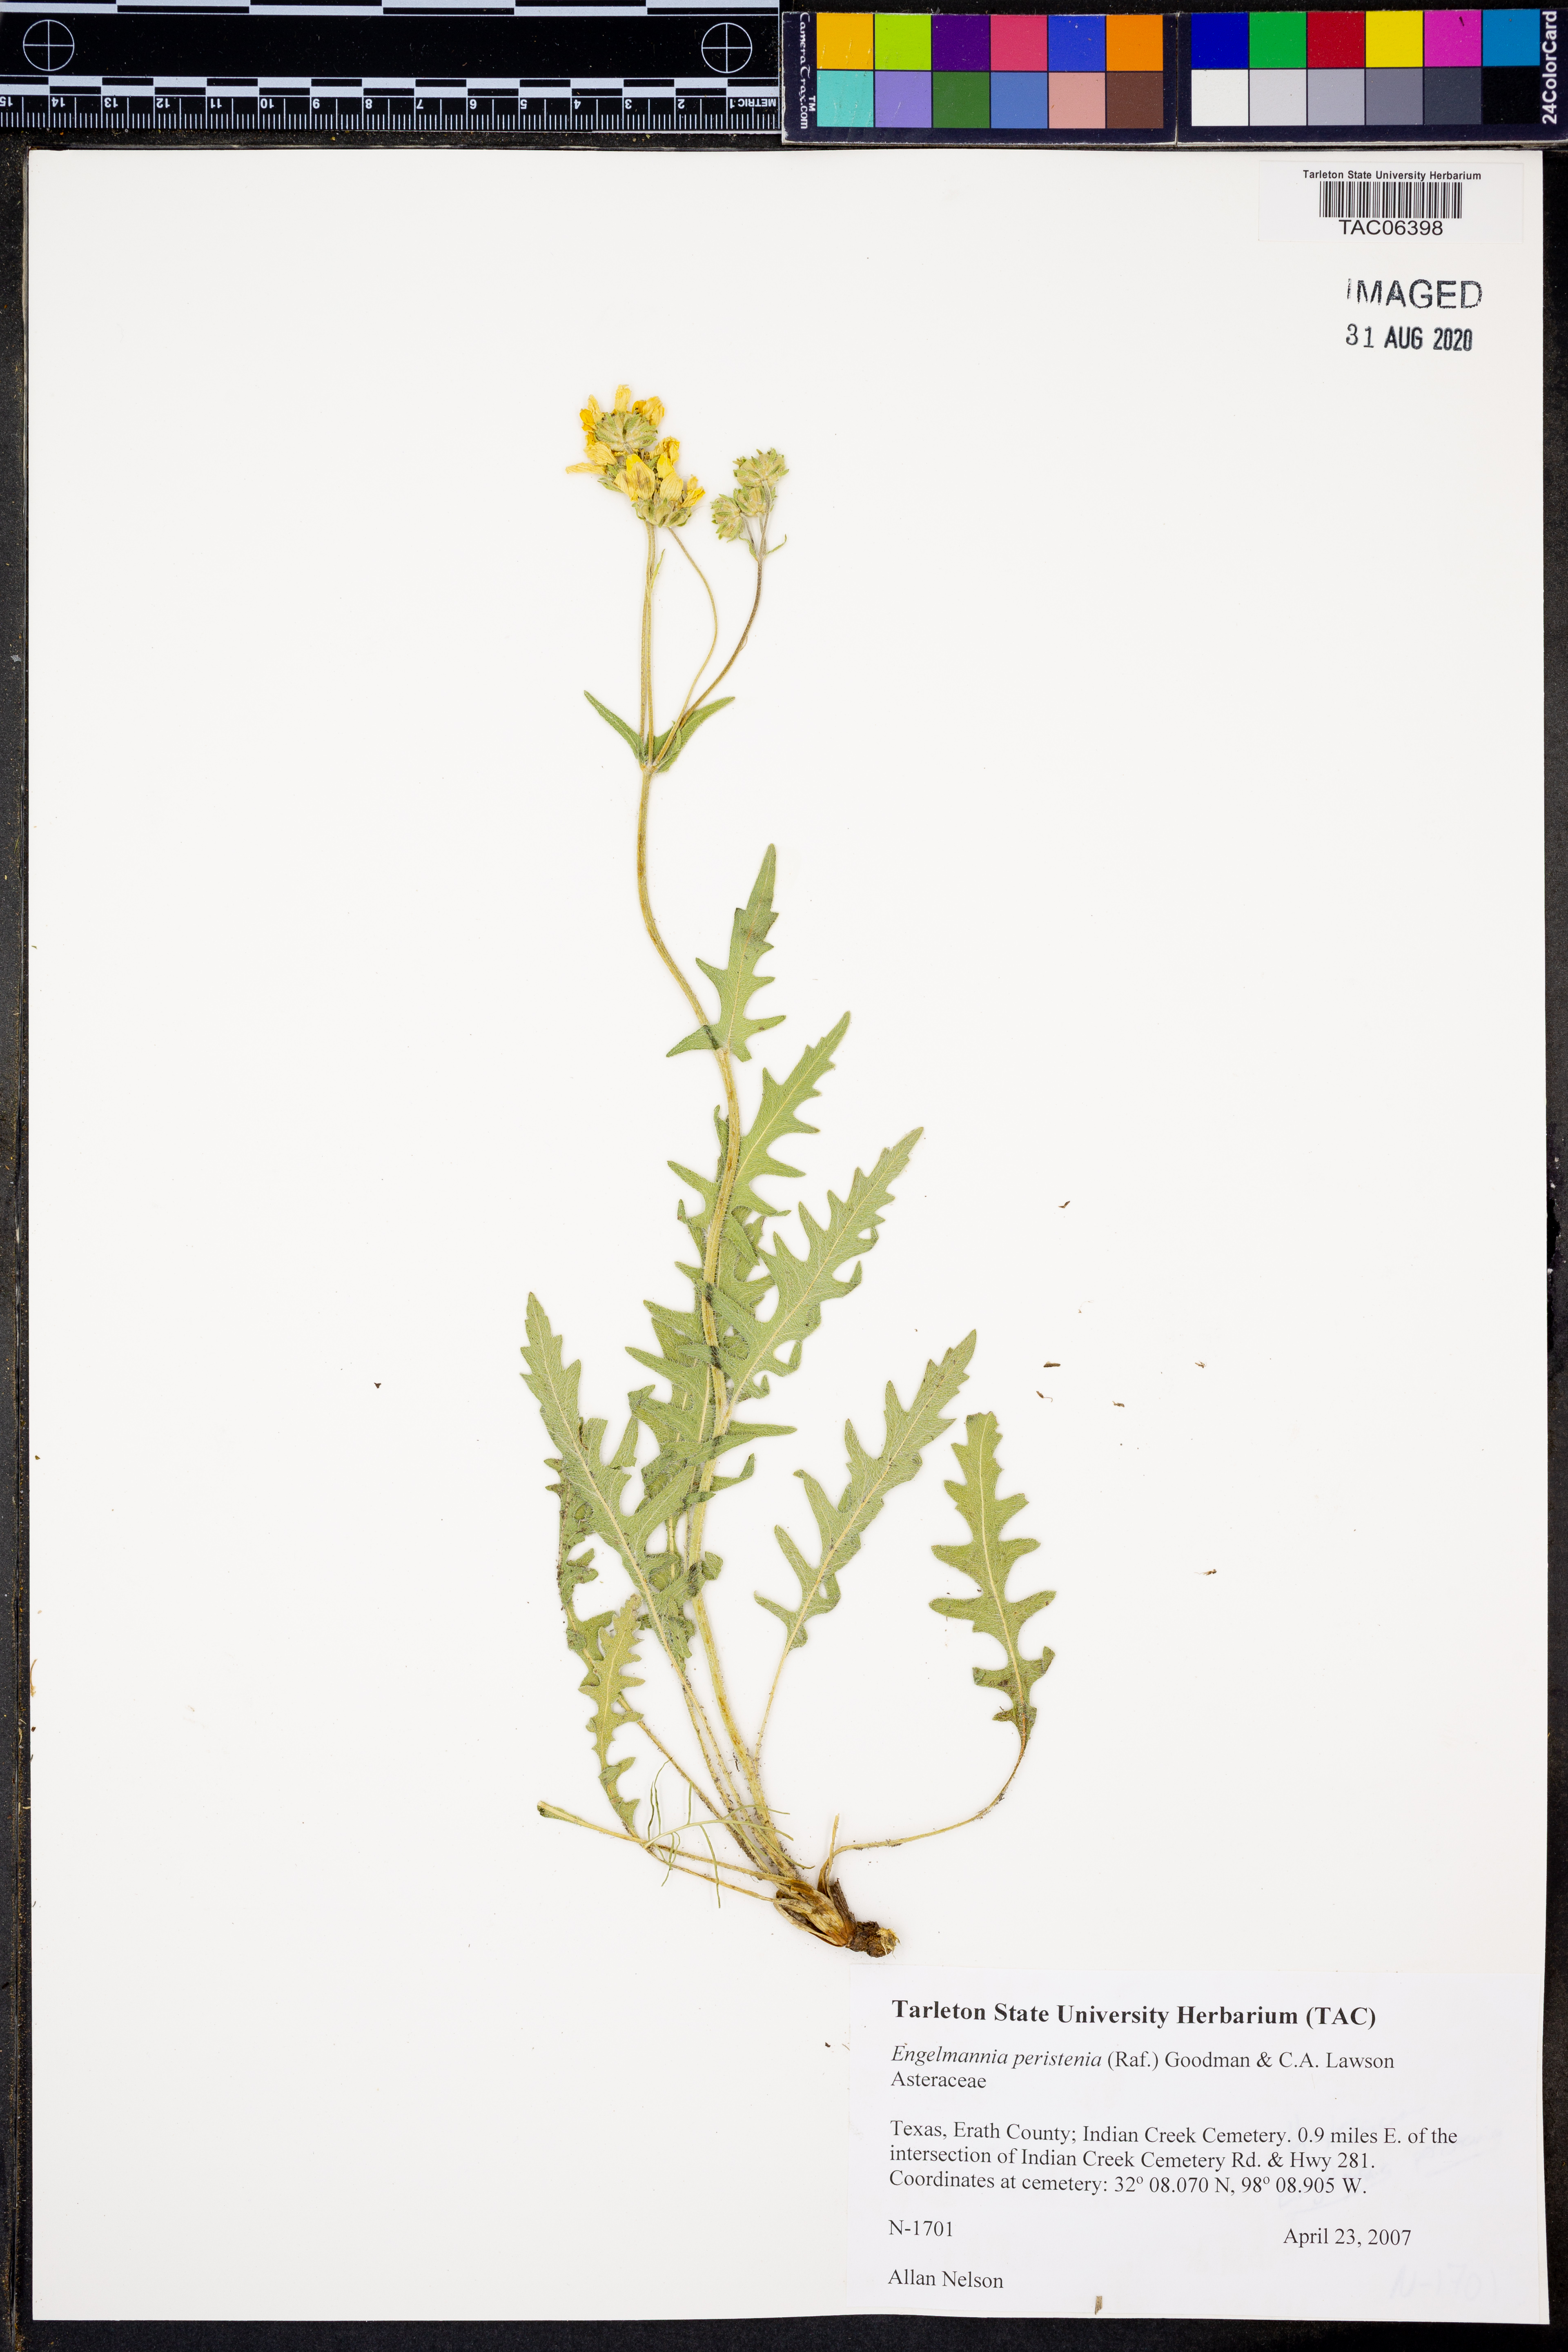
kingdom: Plantae
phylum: Tracheophyta
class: Magnoliopsida
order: Asterales
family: Asteraceae
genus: Engelmannia
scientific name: Engelmannia peristenia
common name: Engelmann's daisy
